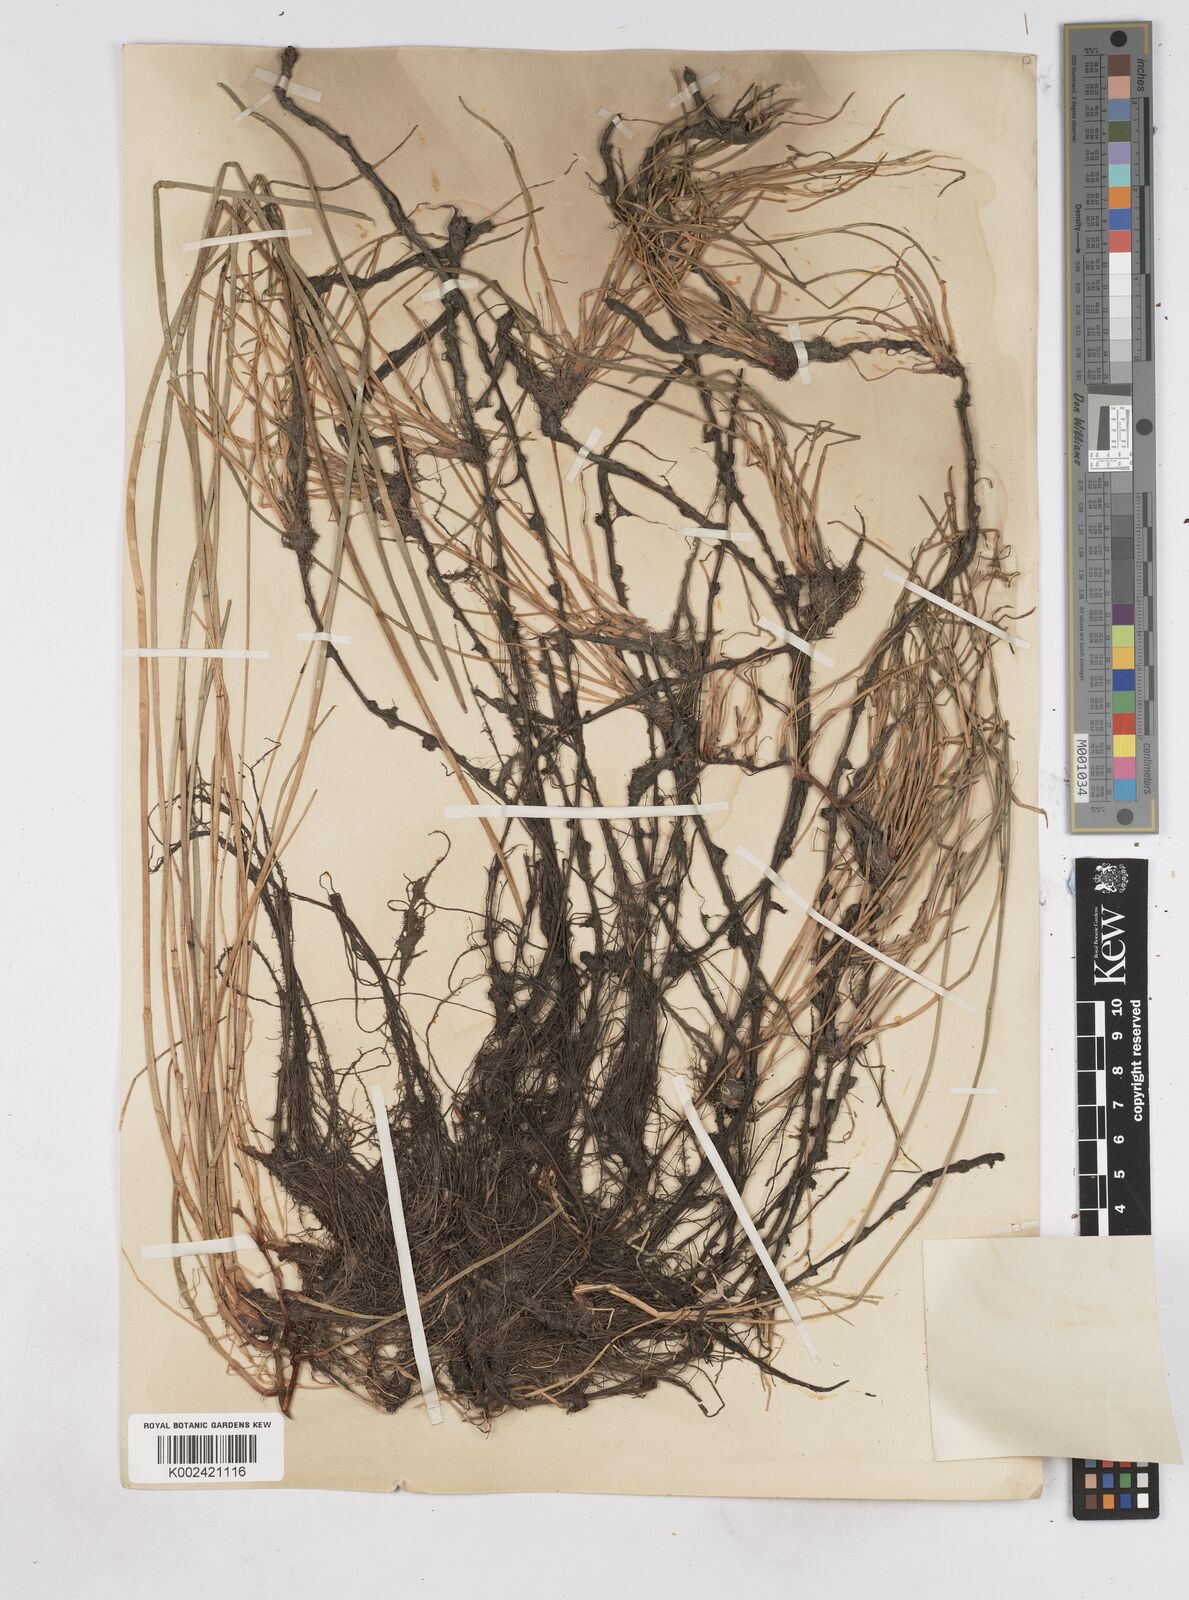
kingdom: Plantae
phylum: Tracheophyta
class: Liliopsida
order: Poales
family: Cyperaceae
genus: Eleocharis
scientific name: Eleocharis palustris
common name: Common spike-rush
